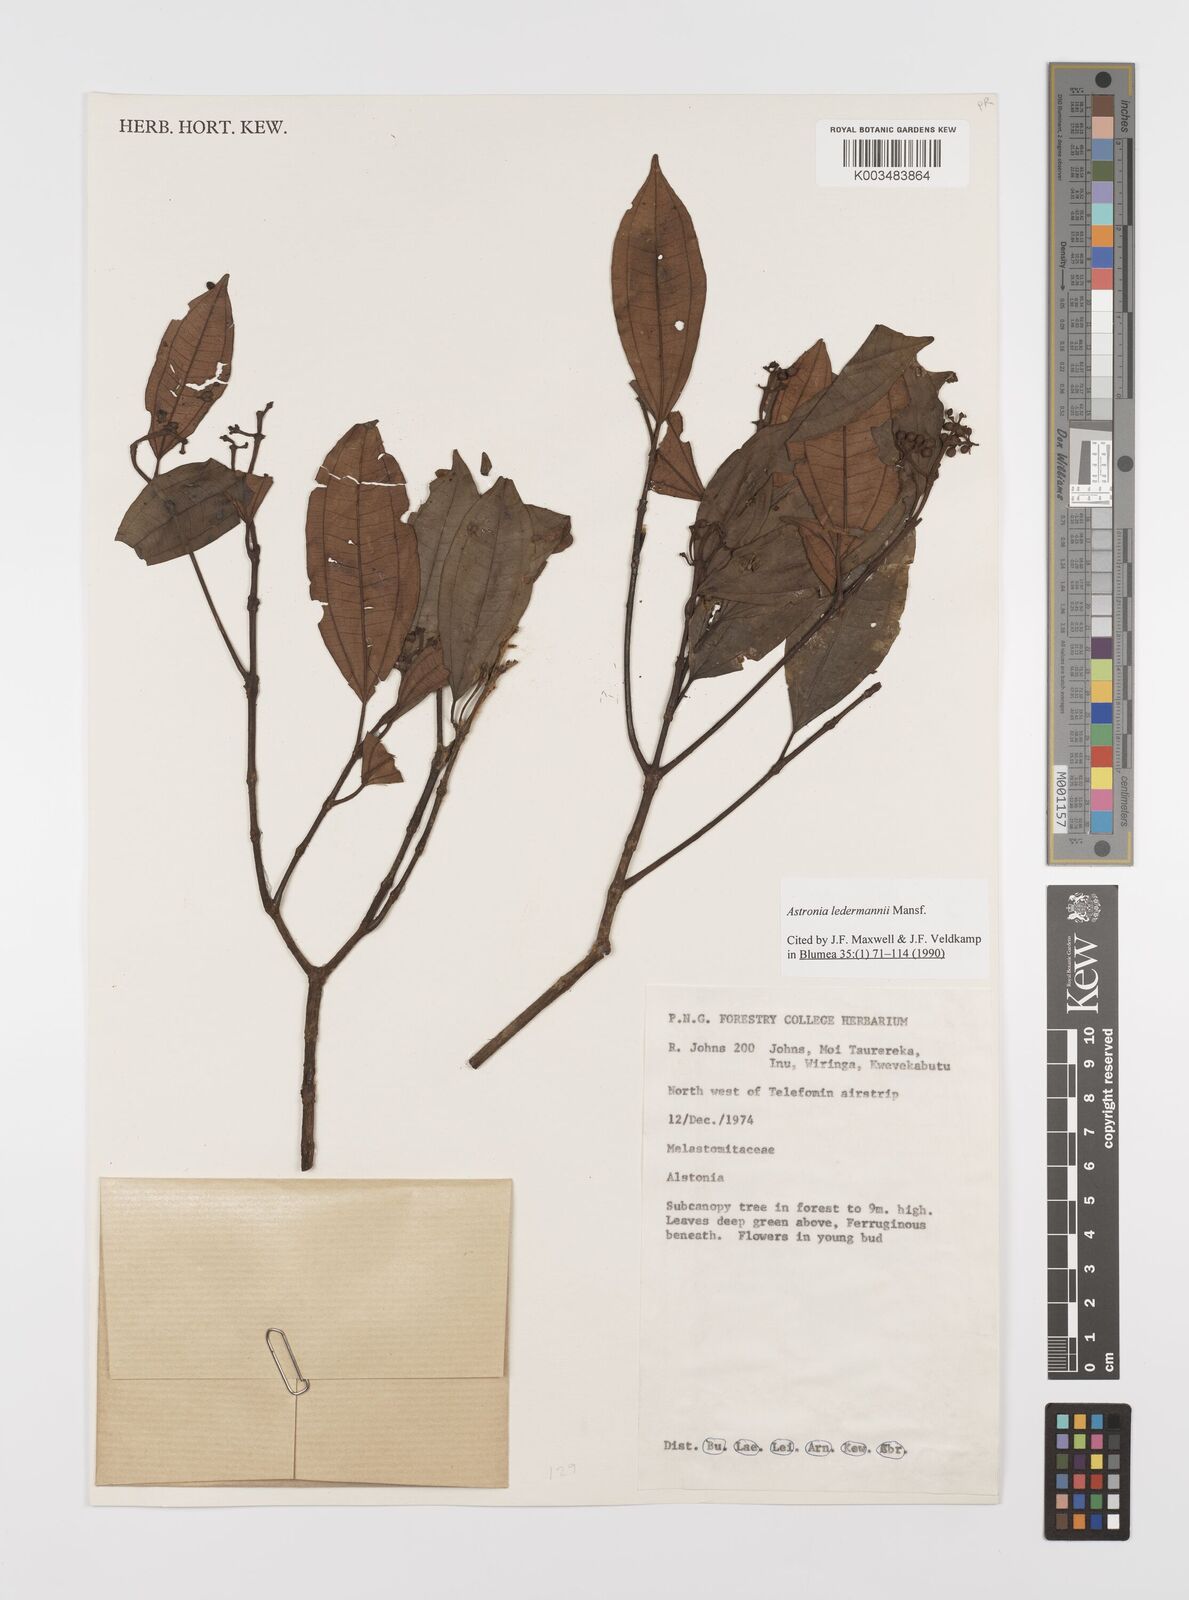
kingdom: Plantae
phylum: Tracheophyta
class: Magnoliopsida
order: Myrtales
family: Melastomataceae
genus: Astronia
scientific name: Astronia ledermannii
